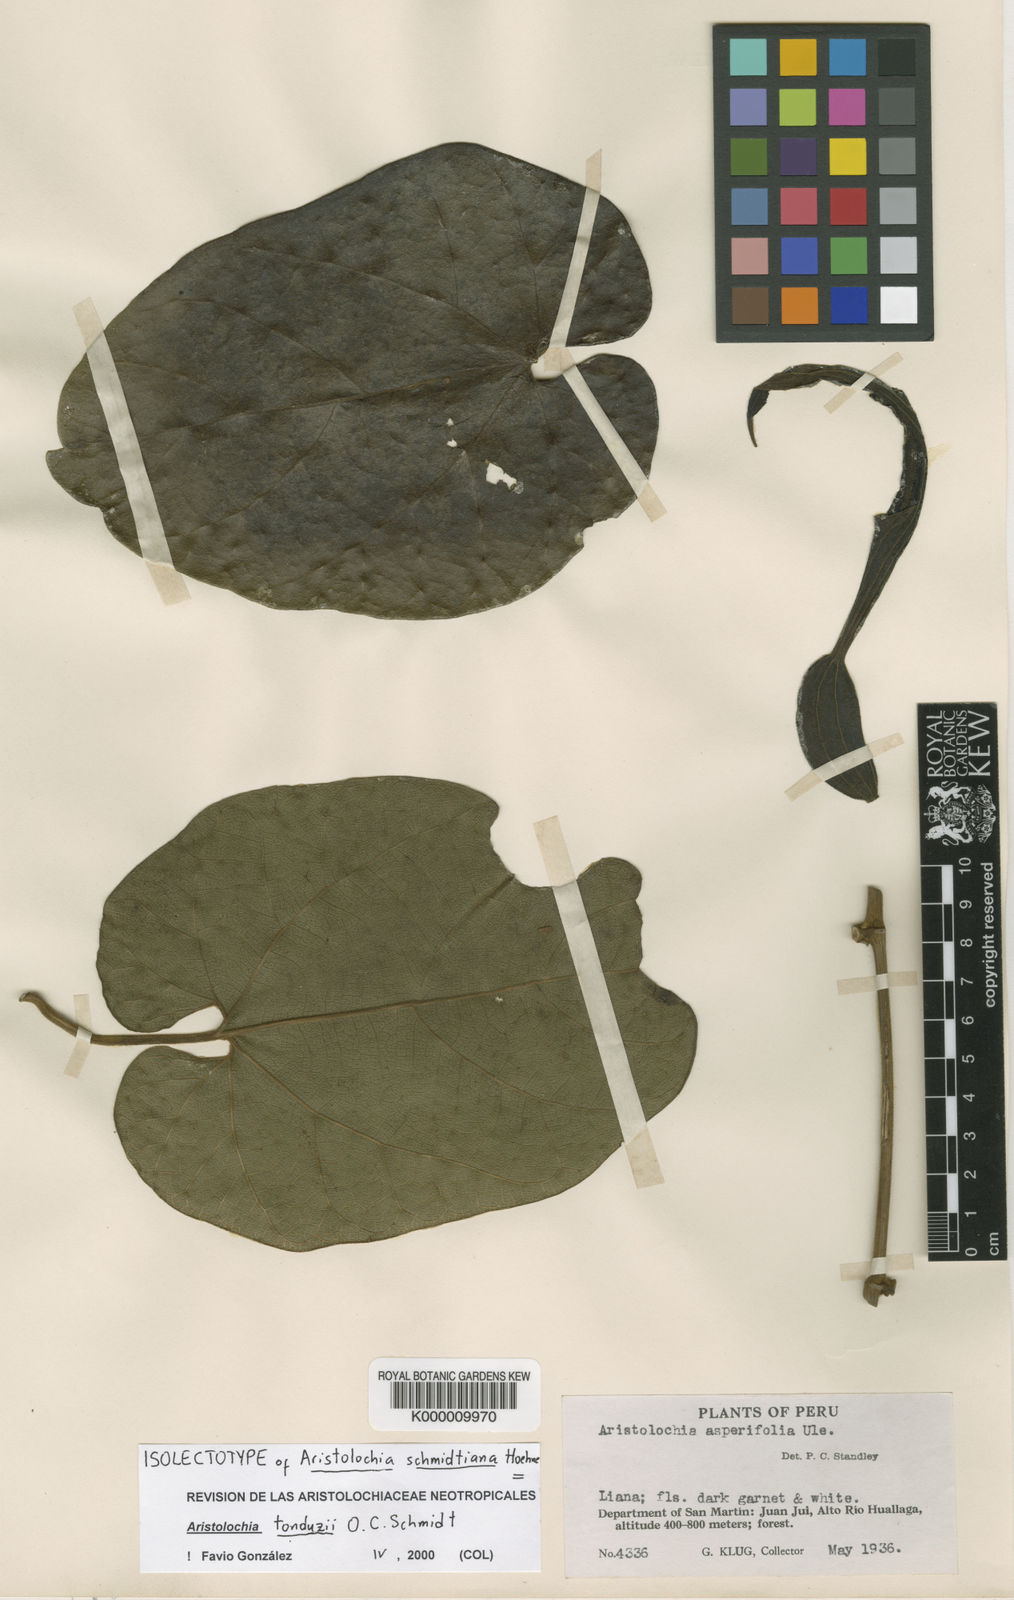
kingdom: Plantae
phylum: Tracheophyta
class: Magnoliopsida
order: Piperales
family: Aristolochiaceae
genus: Aristolochia
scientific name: Aristolochia tonduzii
